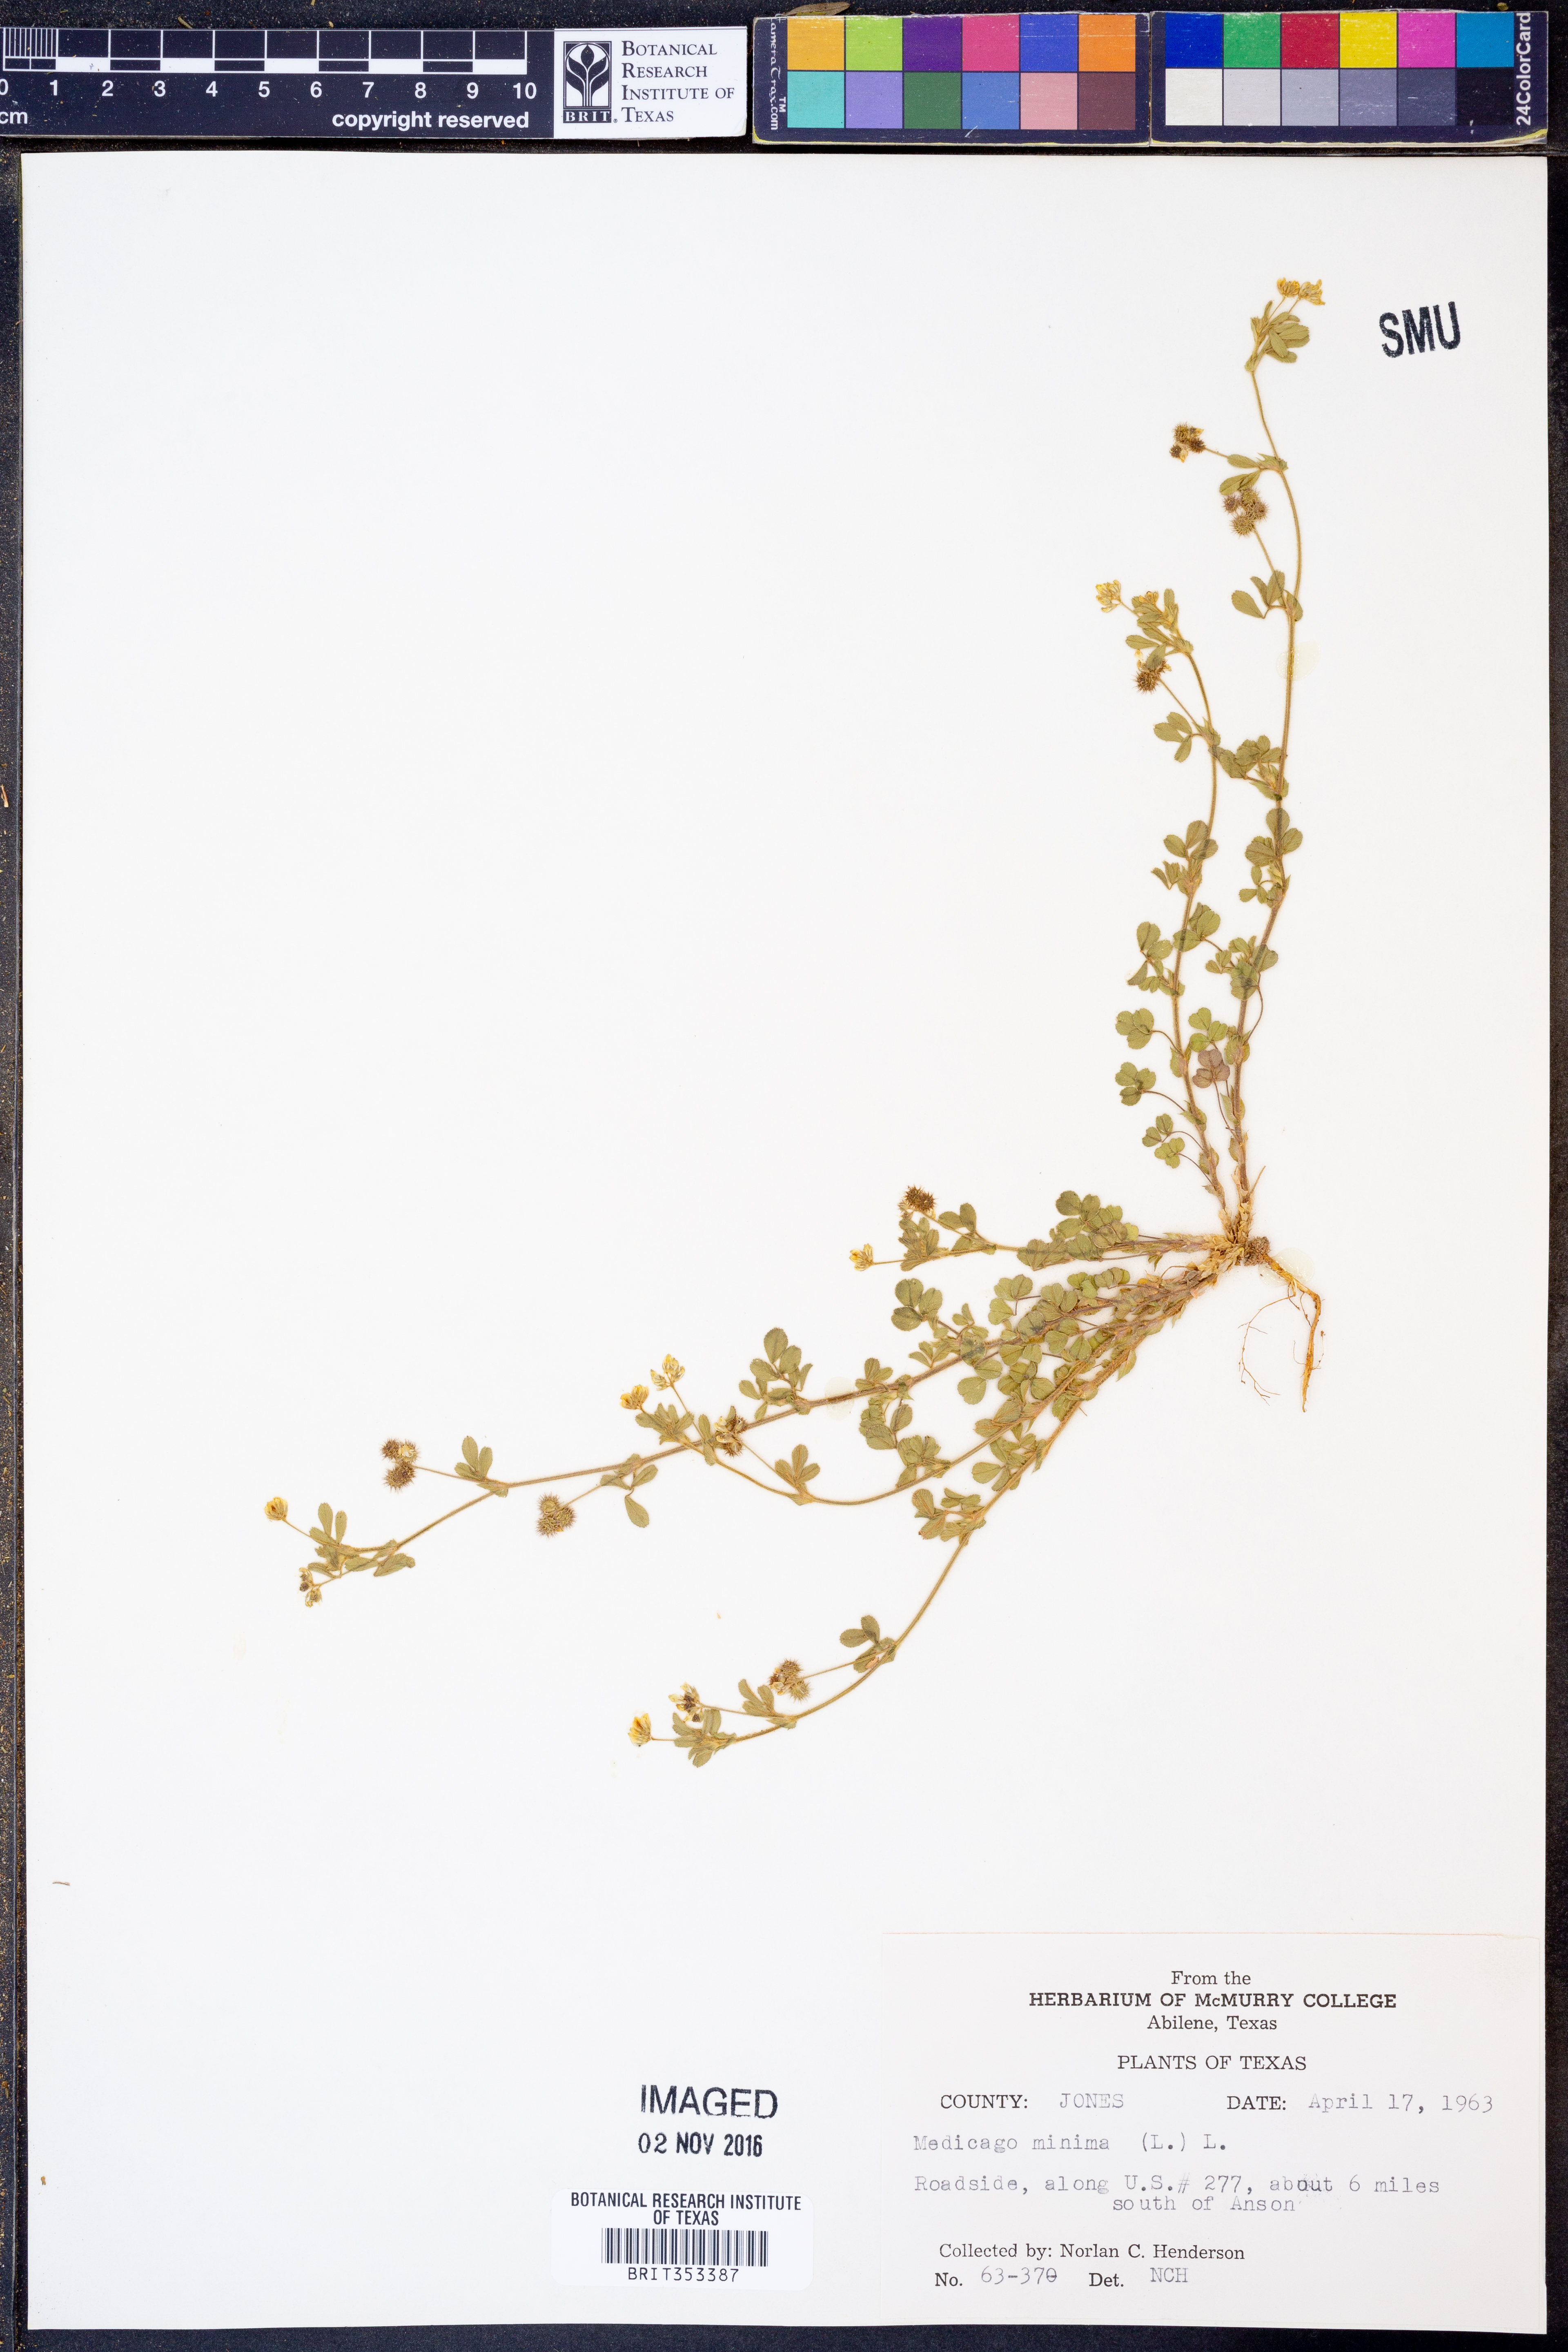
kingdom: Plantae
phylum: Tracheophyta
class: Magnoliopsida
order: Fabales
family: Fabaceae
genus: Medicago
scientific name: Medicago minima
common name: Little bur-clover
